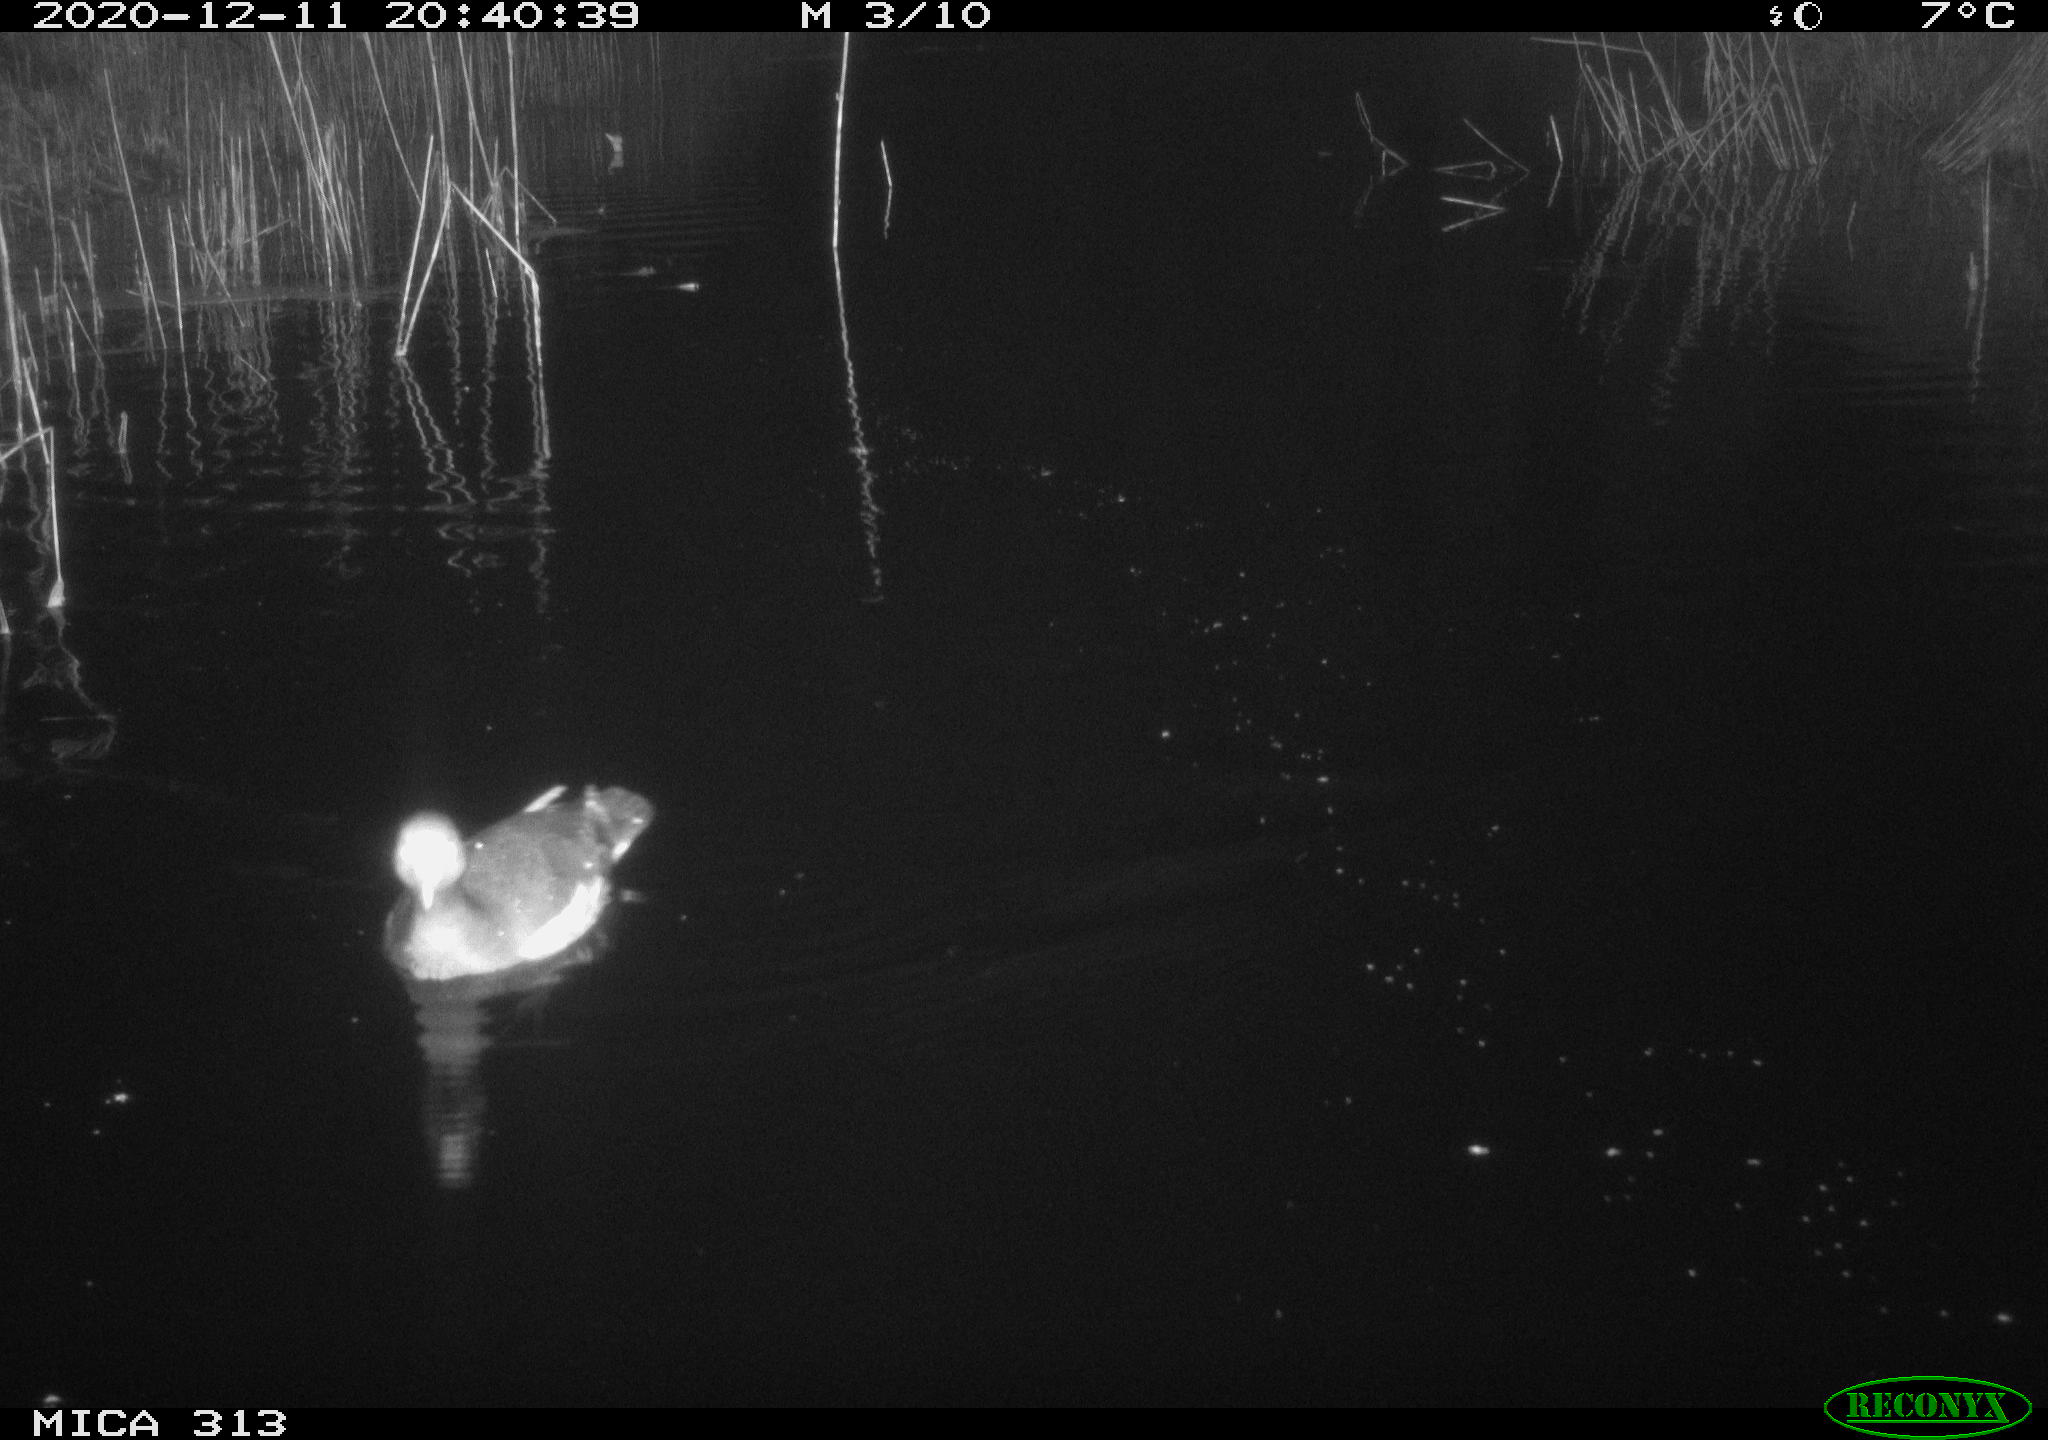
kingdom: Animalia
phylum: Chordata
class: Aves
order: Gruiformes
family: Rallidae
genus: Gallinula
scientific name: Gallinula chloropus
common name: Common moorhen
